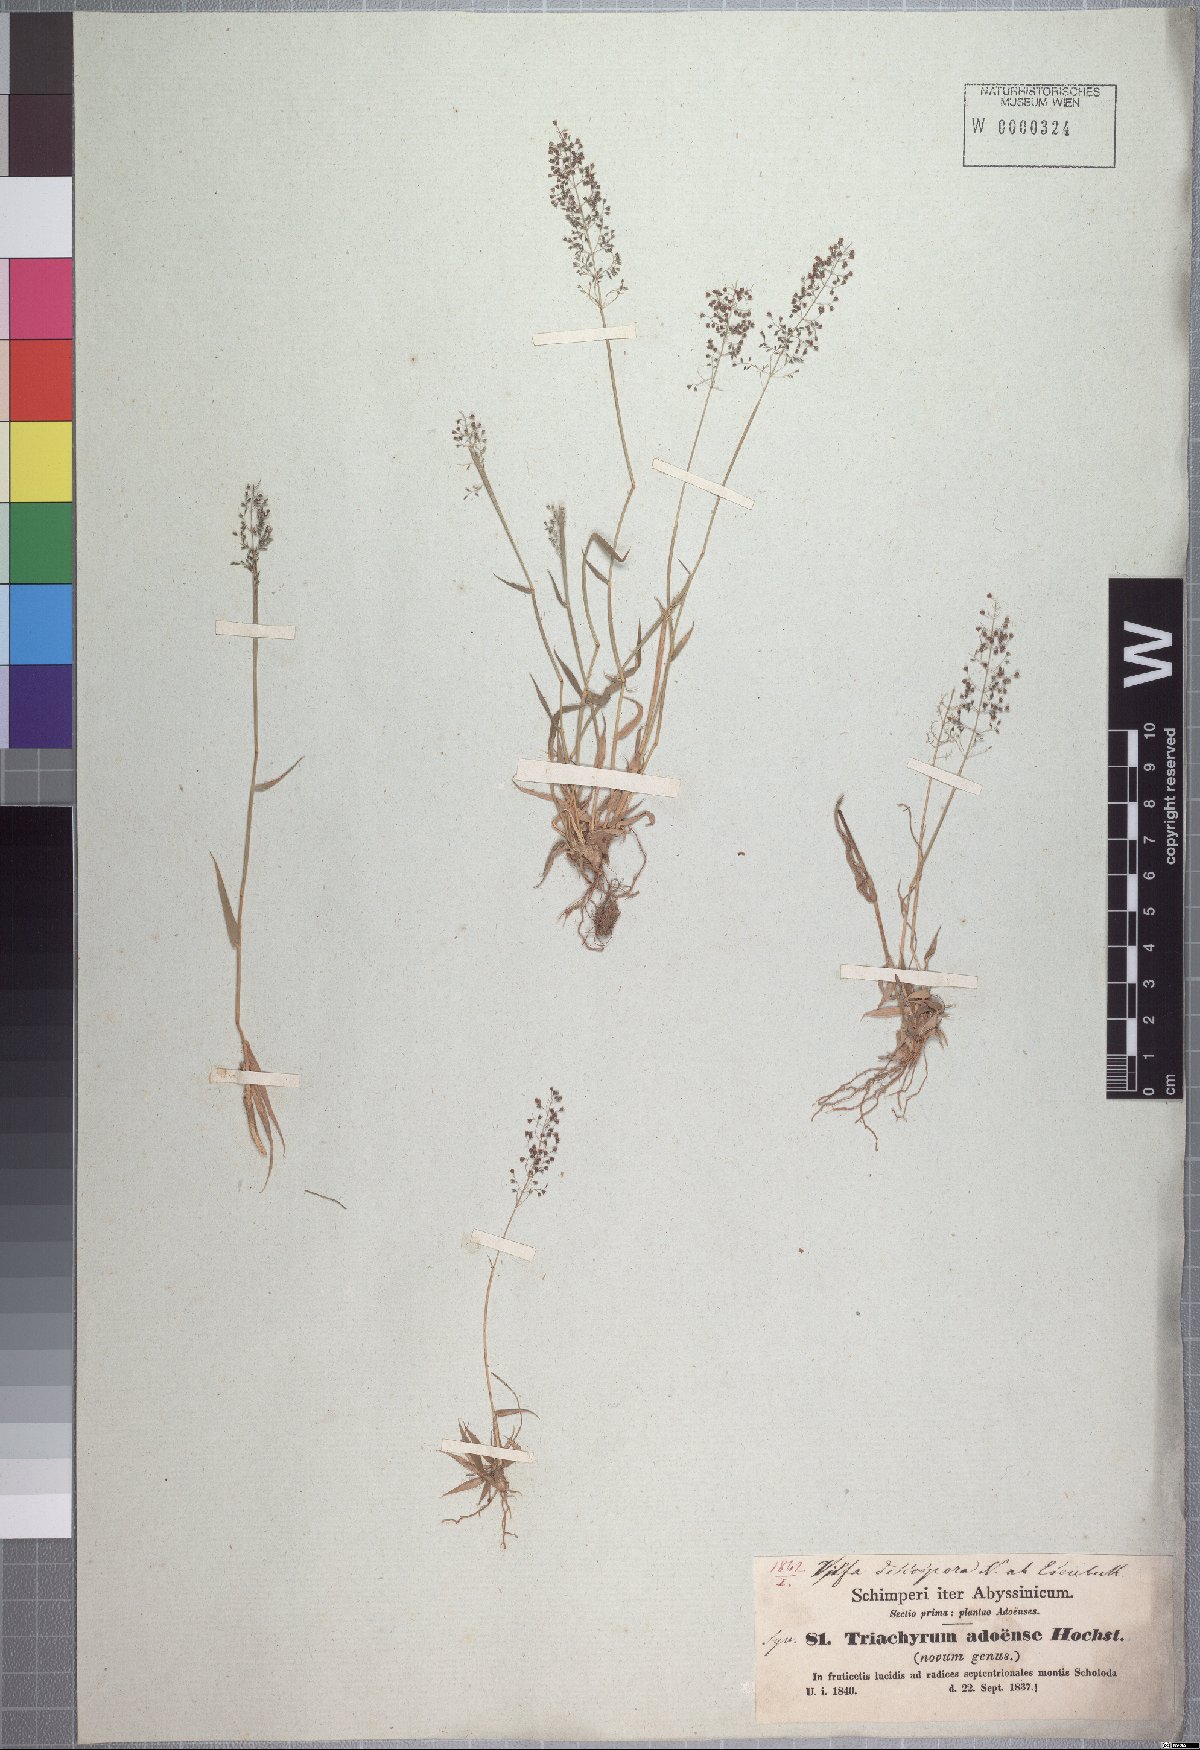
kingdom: Plantae
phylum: Tracheophyta
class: Liliopsida
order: Poales
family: Poaceae
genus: Sporobolus
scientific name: Sporobolus discosporus
